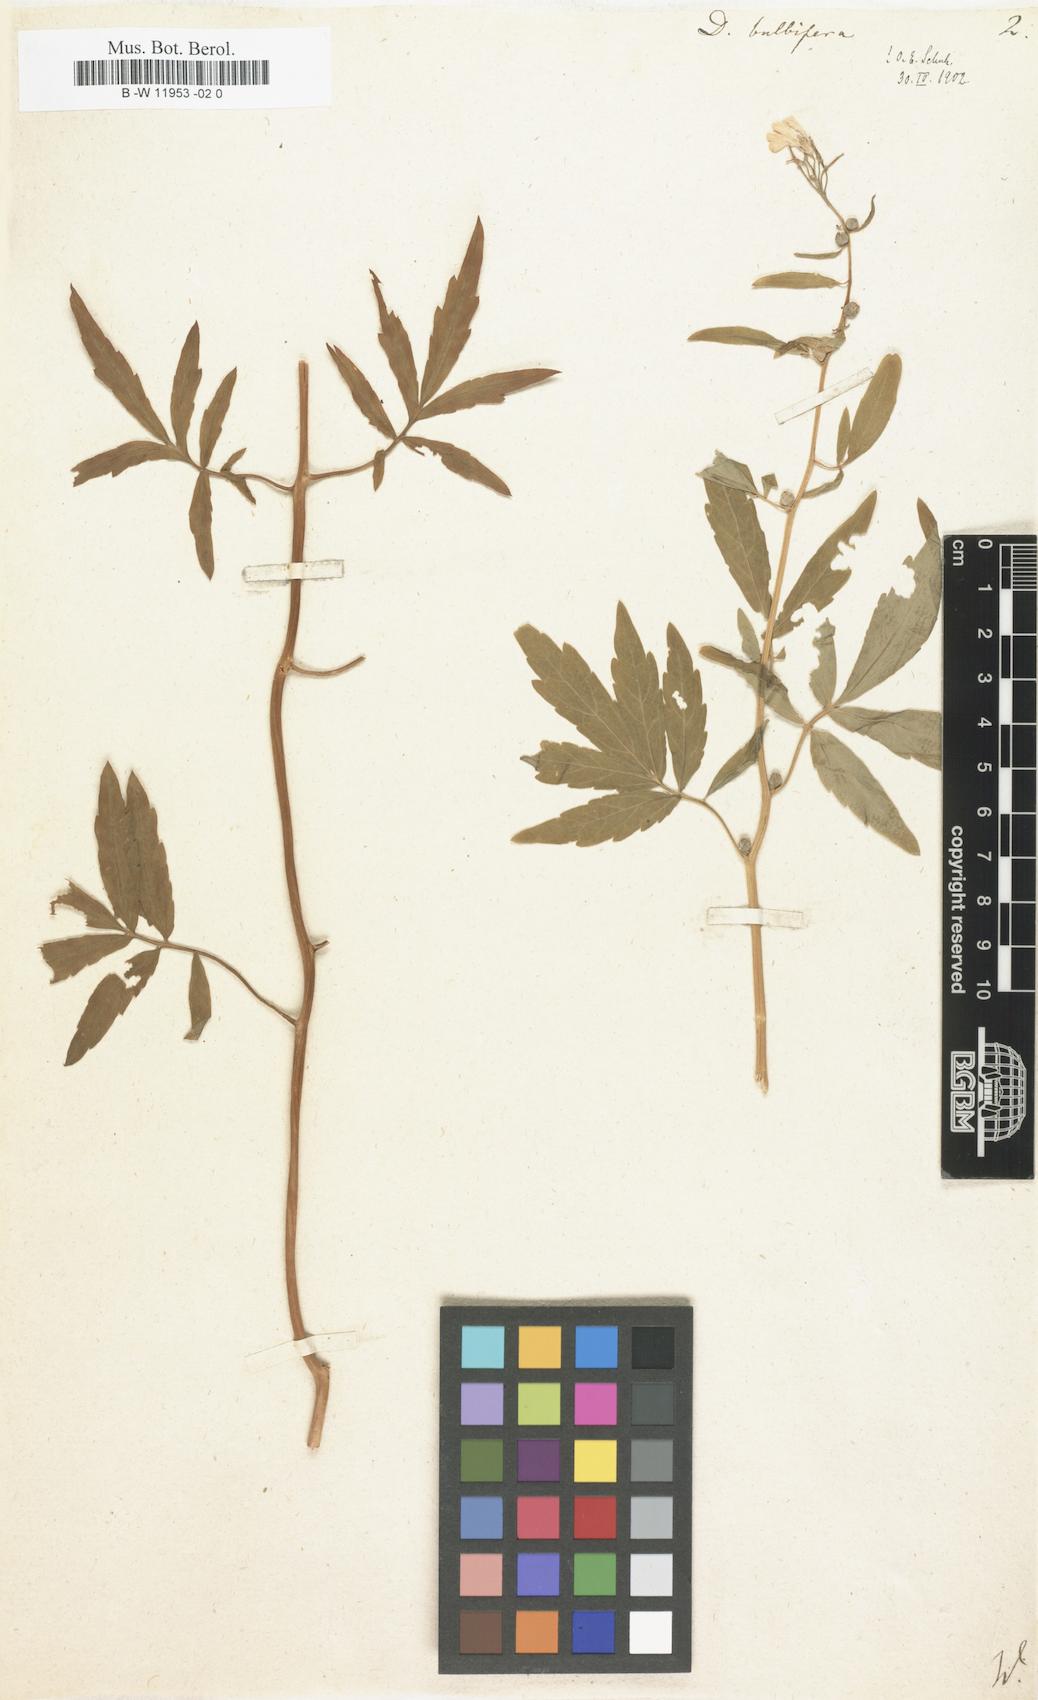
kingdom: Plantae
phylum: Tracheophyta
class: Magnoliopsida
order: Brassicales
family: Brassicaceae
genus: Cardamine
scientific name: Cardamine bulbifera
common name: Coralroot bittercress
